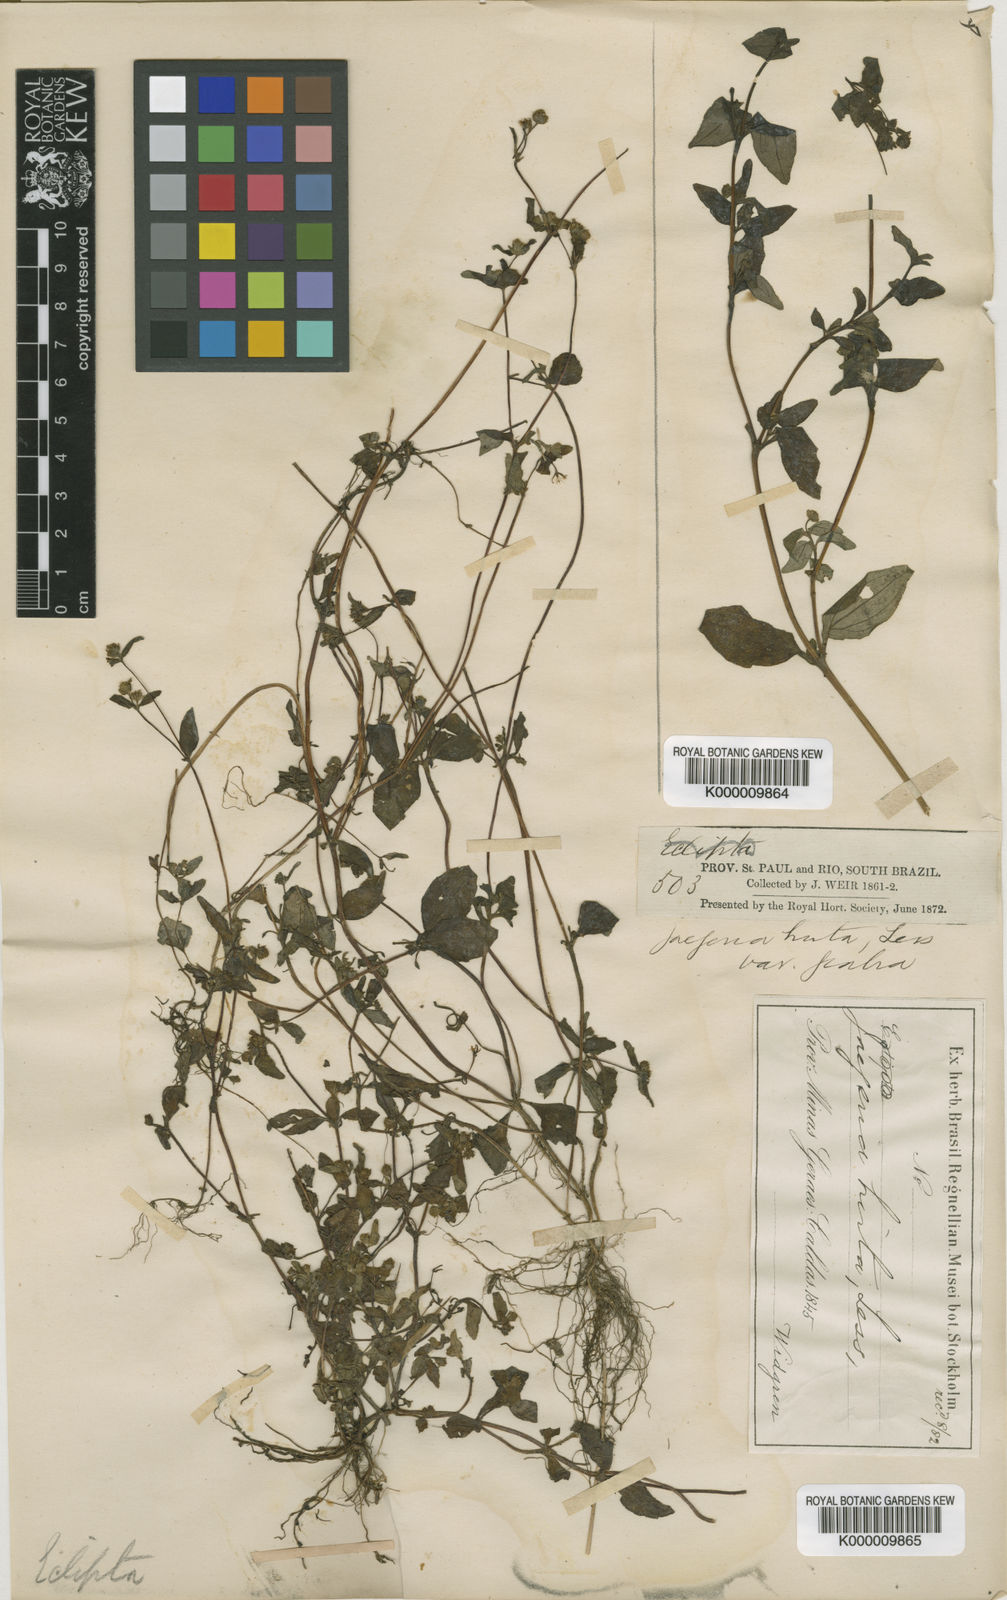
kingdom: Plantae
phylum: Tracheophyta
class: Magnoliopsida
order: Asterales
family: Asteraceae
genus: Jaegeria
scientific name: Jaegeria hirta
